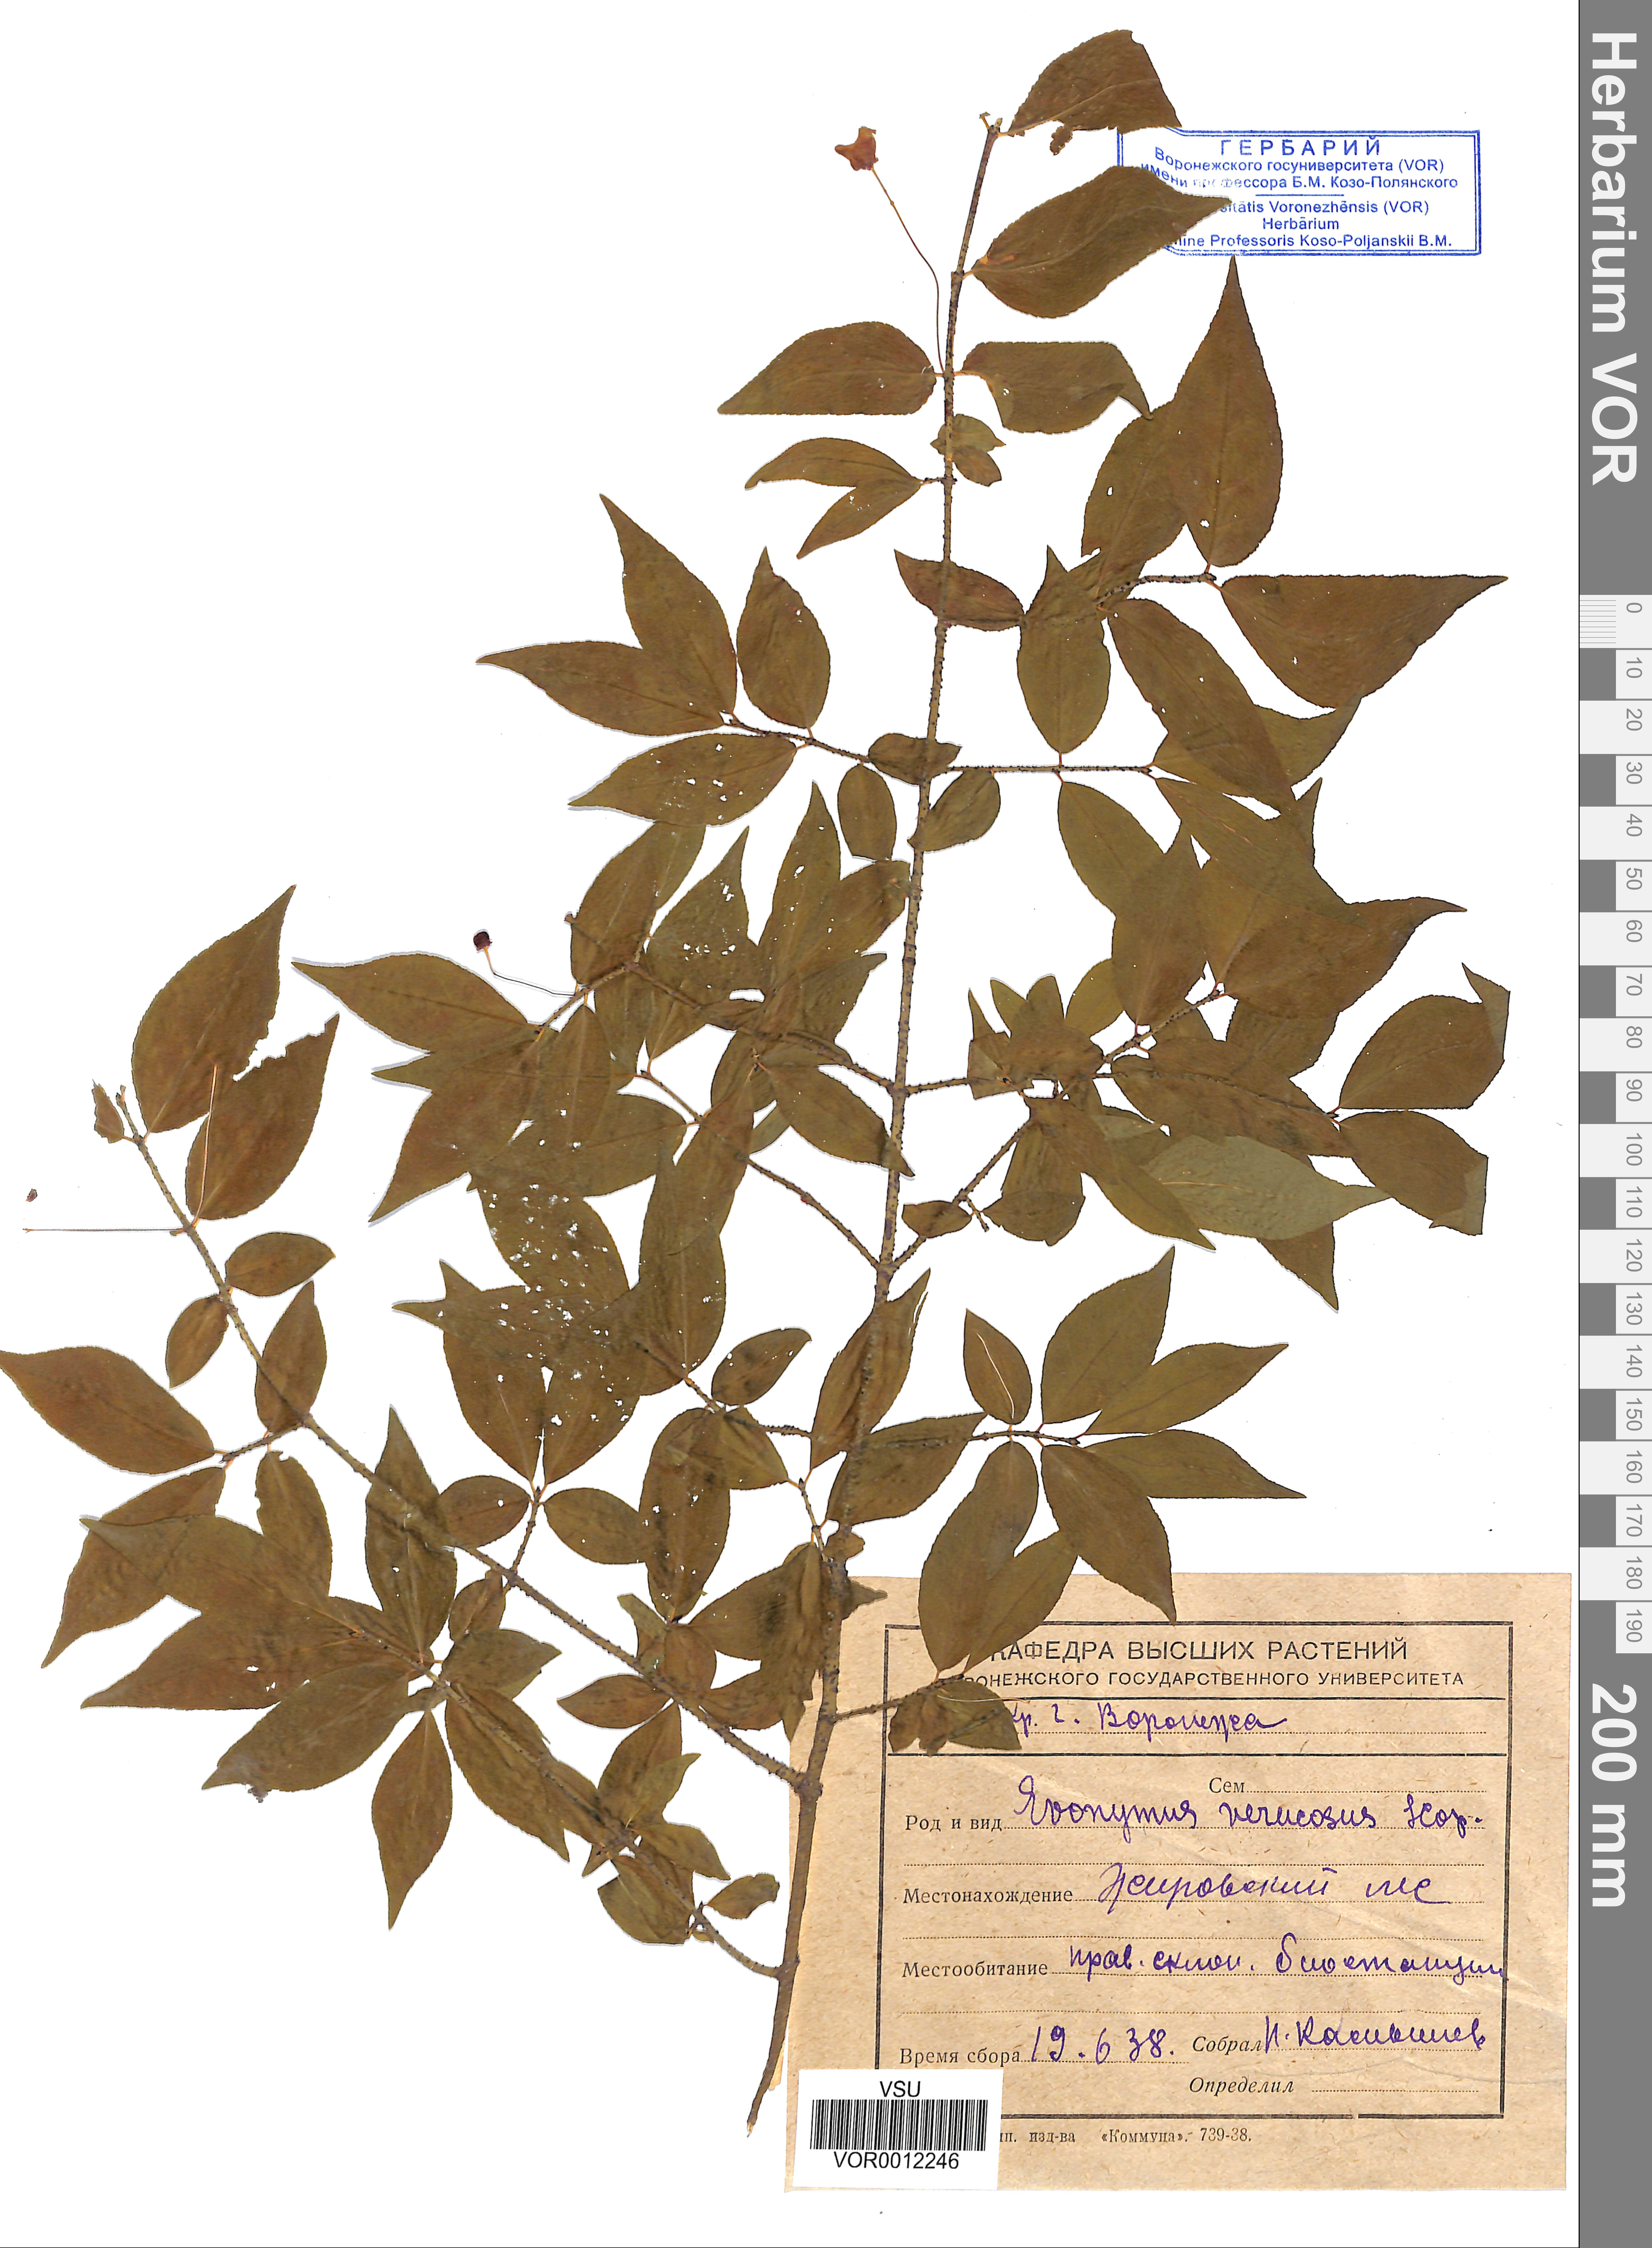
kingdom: Plantae
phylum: Tracheophyta
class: Magnoliopsida
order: Celastrales
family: Celastraceae
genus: Euonymus
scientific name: Euonymus verrucosus
